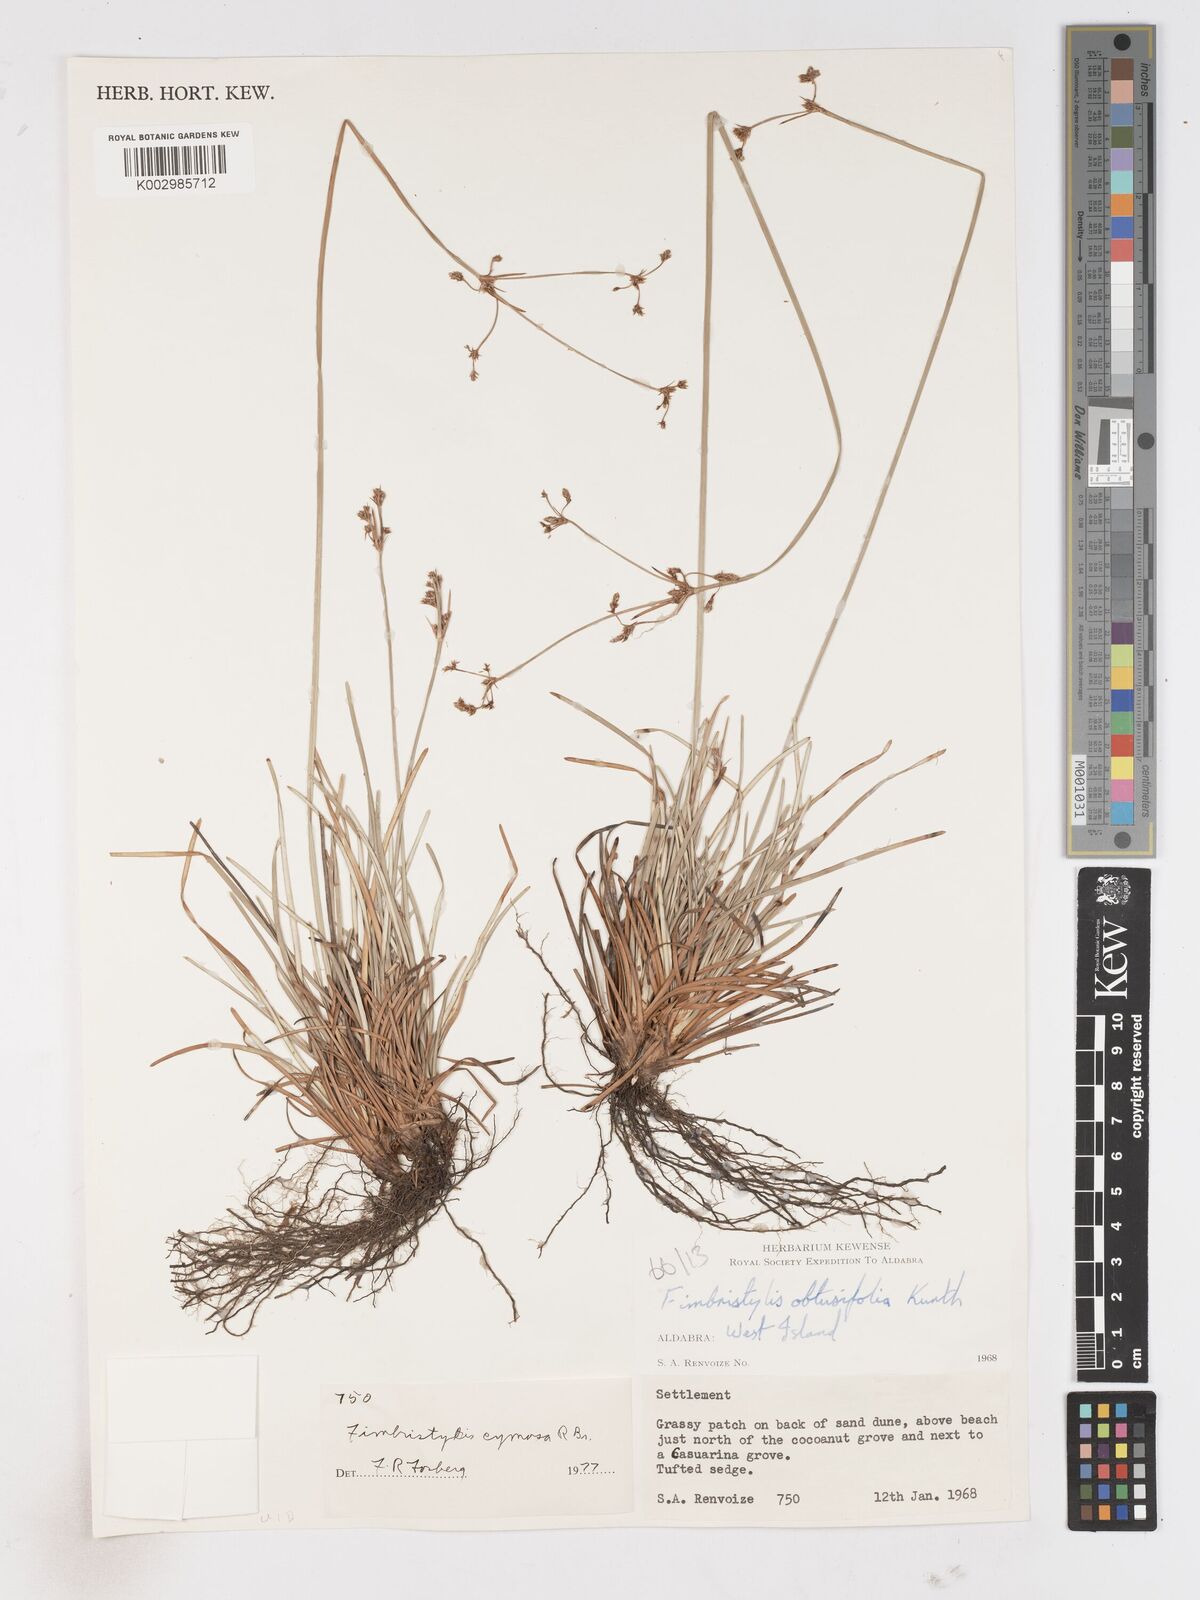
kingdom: Plantae
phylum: Tracheophyta
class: Liliopsida
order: Poales
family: Cyperaceae
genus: Fimbristylis
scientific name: Fimbristylis cymosa
